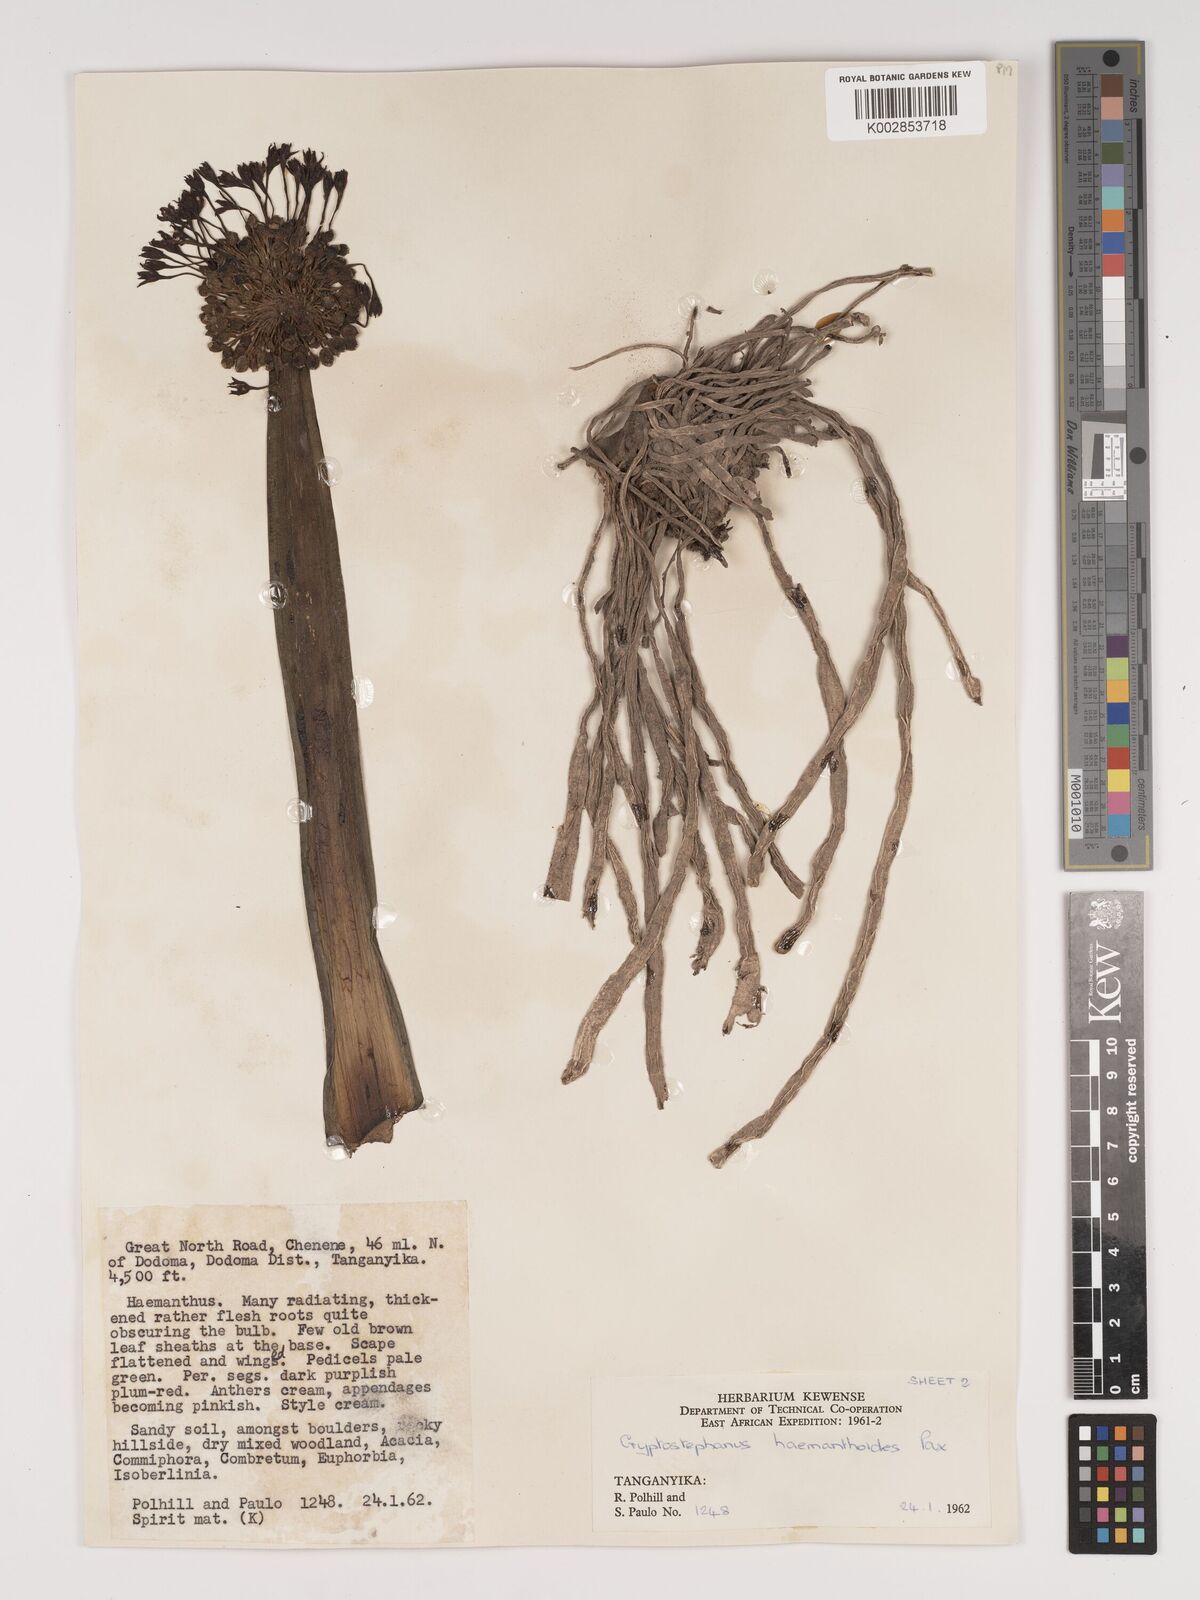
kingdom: Plantae
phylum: Tracheophyta
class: Liliopsida
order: Asparagales
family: Amaryllidaceae
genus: Cryptostephanus
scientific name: Cryptostephanus haemanthoides
